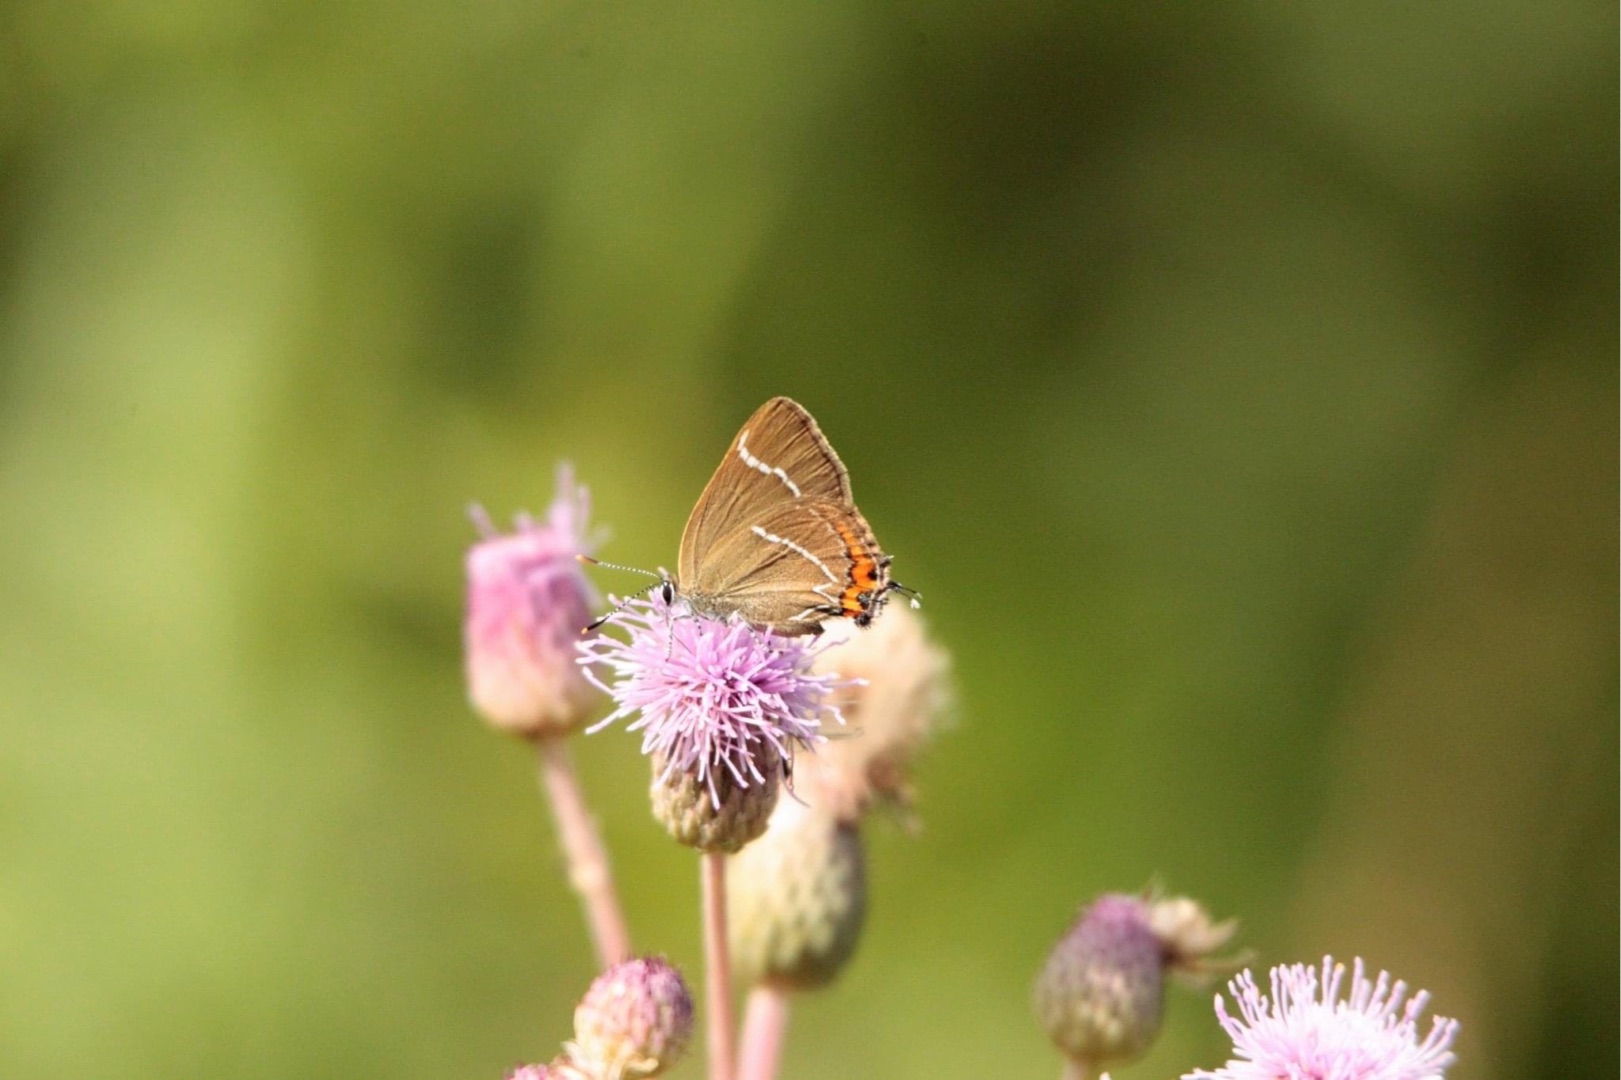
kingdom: Animalia
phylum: Arthropoda
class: Insecta
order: Lepidoptera
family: Lycaenidae
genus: Satyrium
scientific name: Satyrium w-album
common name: Det hvide W
